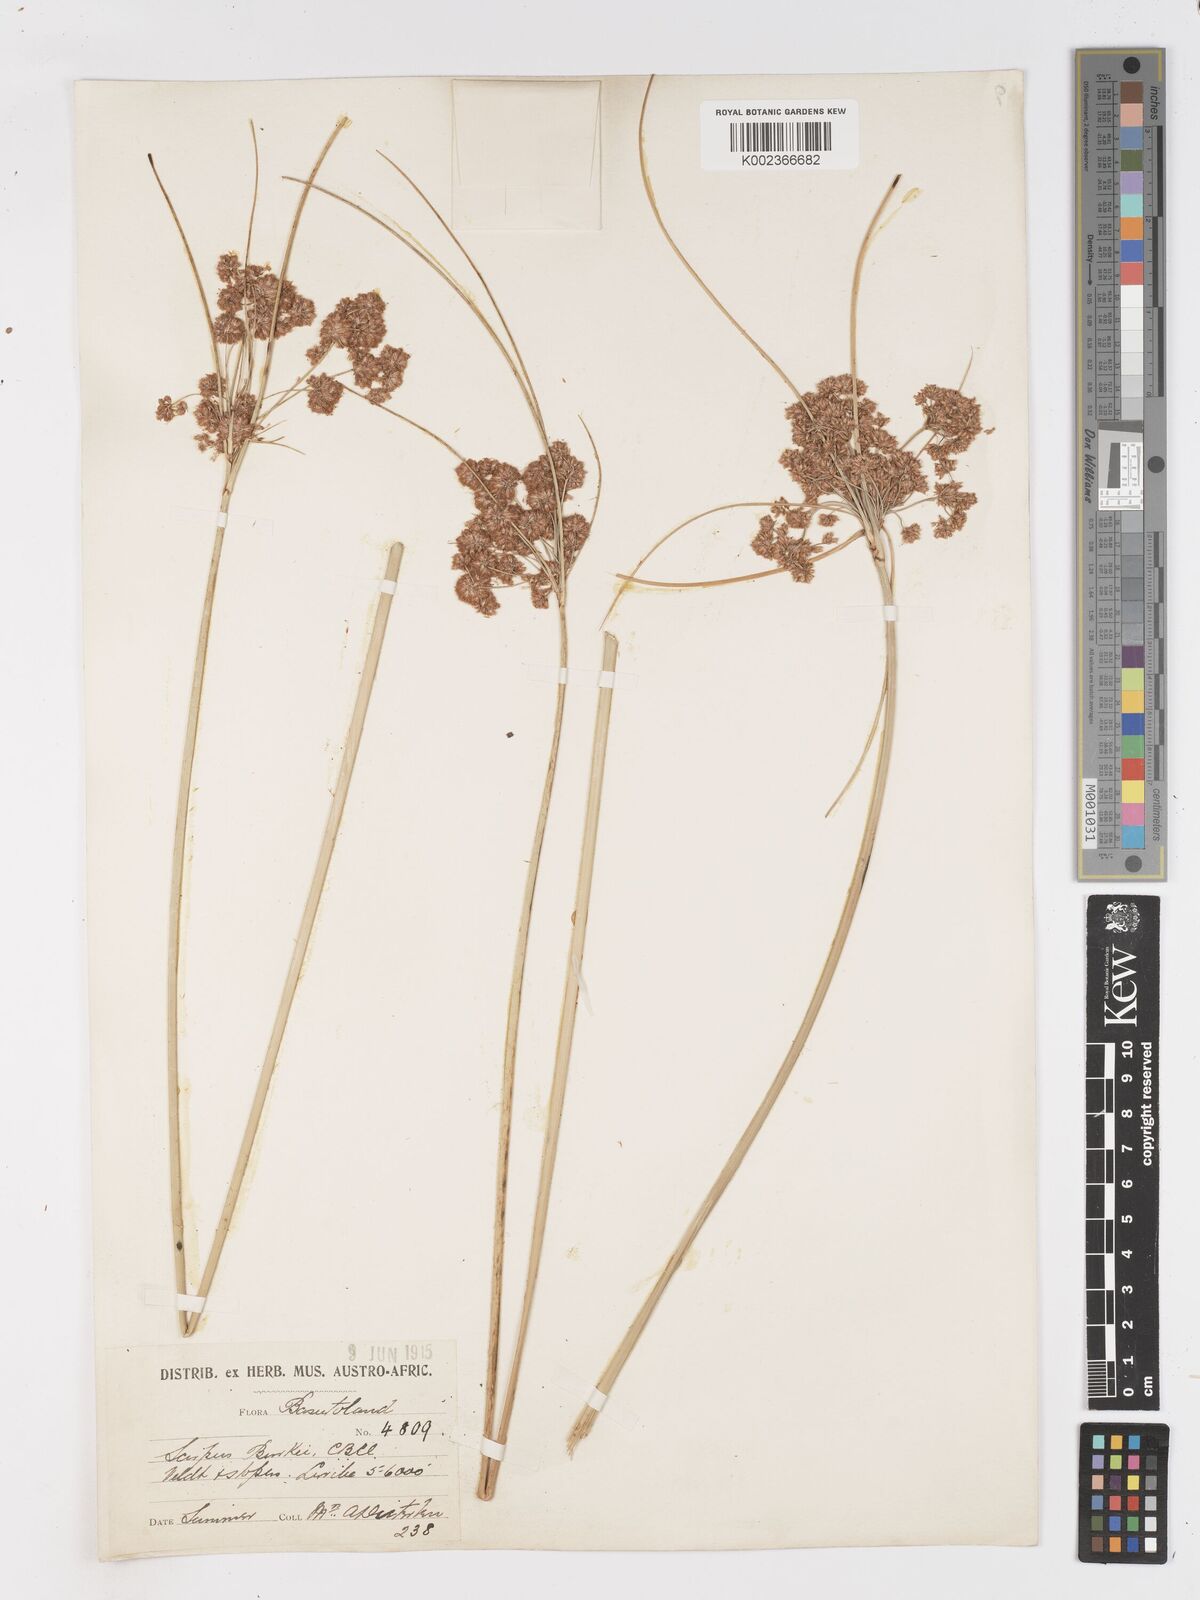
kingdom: Plantae
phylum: Tracheophyta
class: Liliopsida
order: Poales
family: Cyperaceae
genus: Scirpoides
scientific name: Scirpoides burkei
